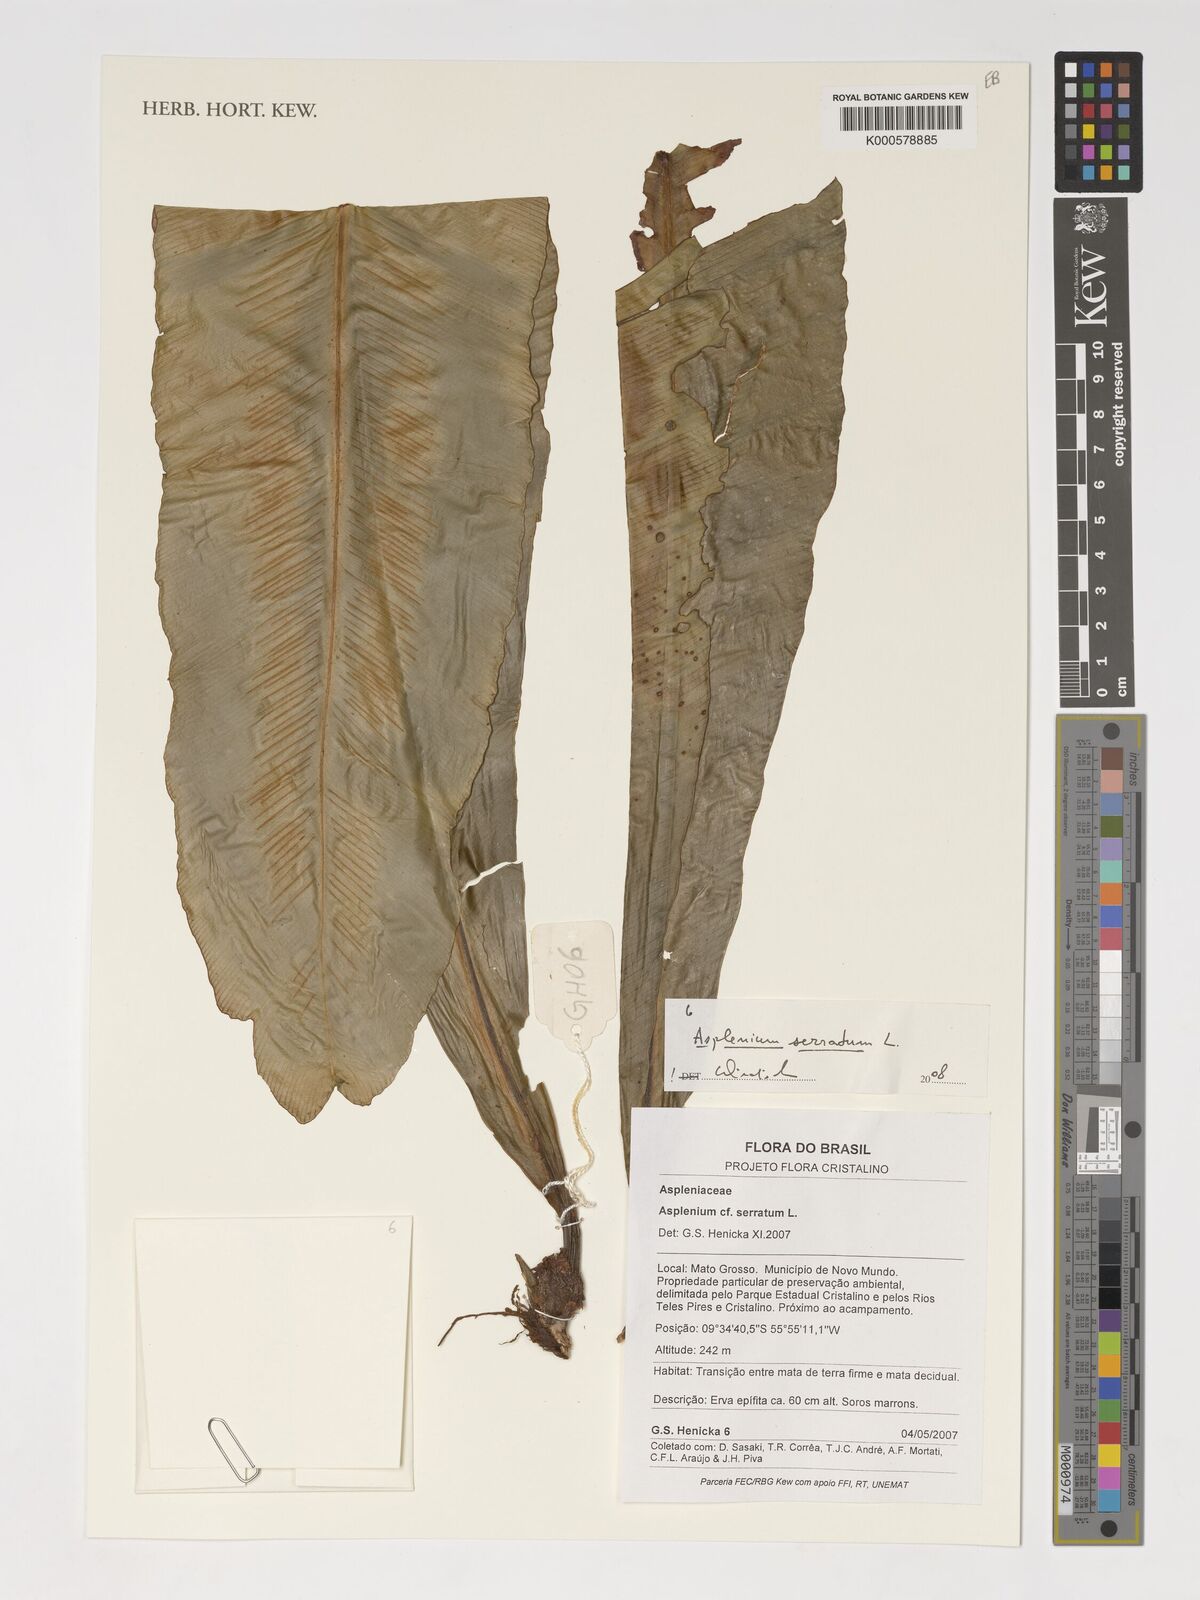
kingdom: Plantae
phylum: Tracheophyta
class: Polypodiopsida
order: Polypodiales
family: Aspleniaceae
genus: Asplenium
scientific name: Asplenium serratum
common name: Wild birdnest fern
